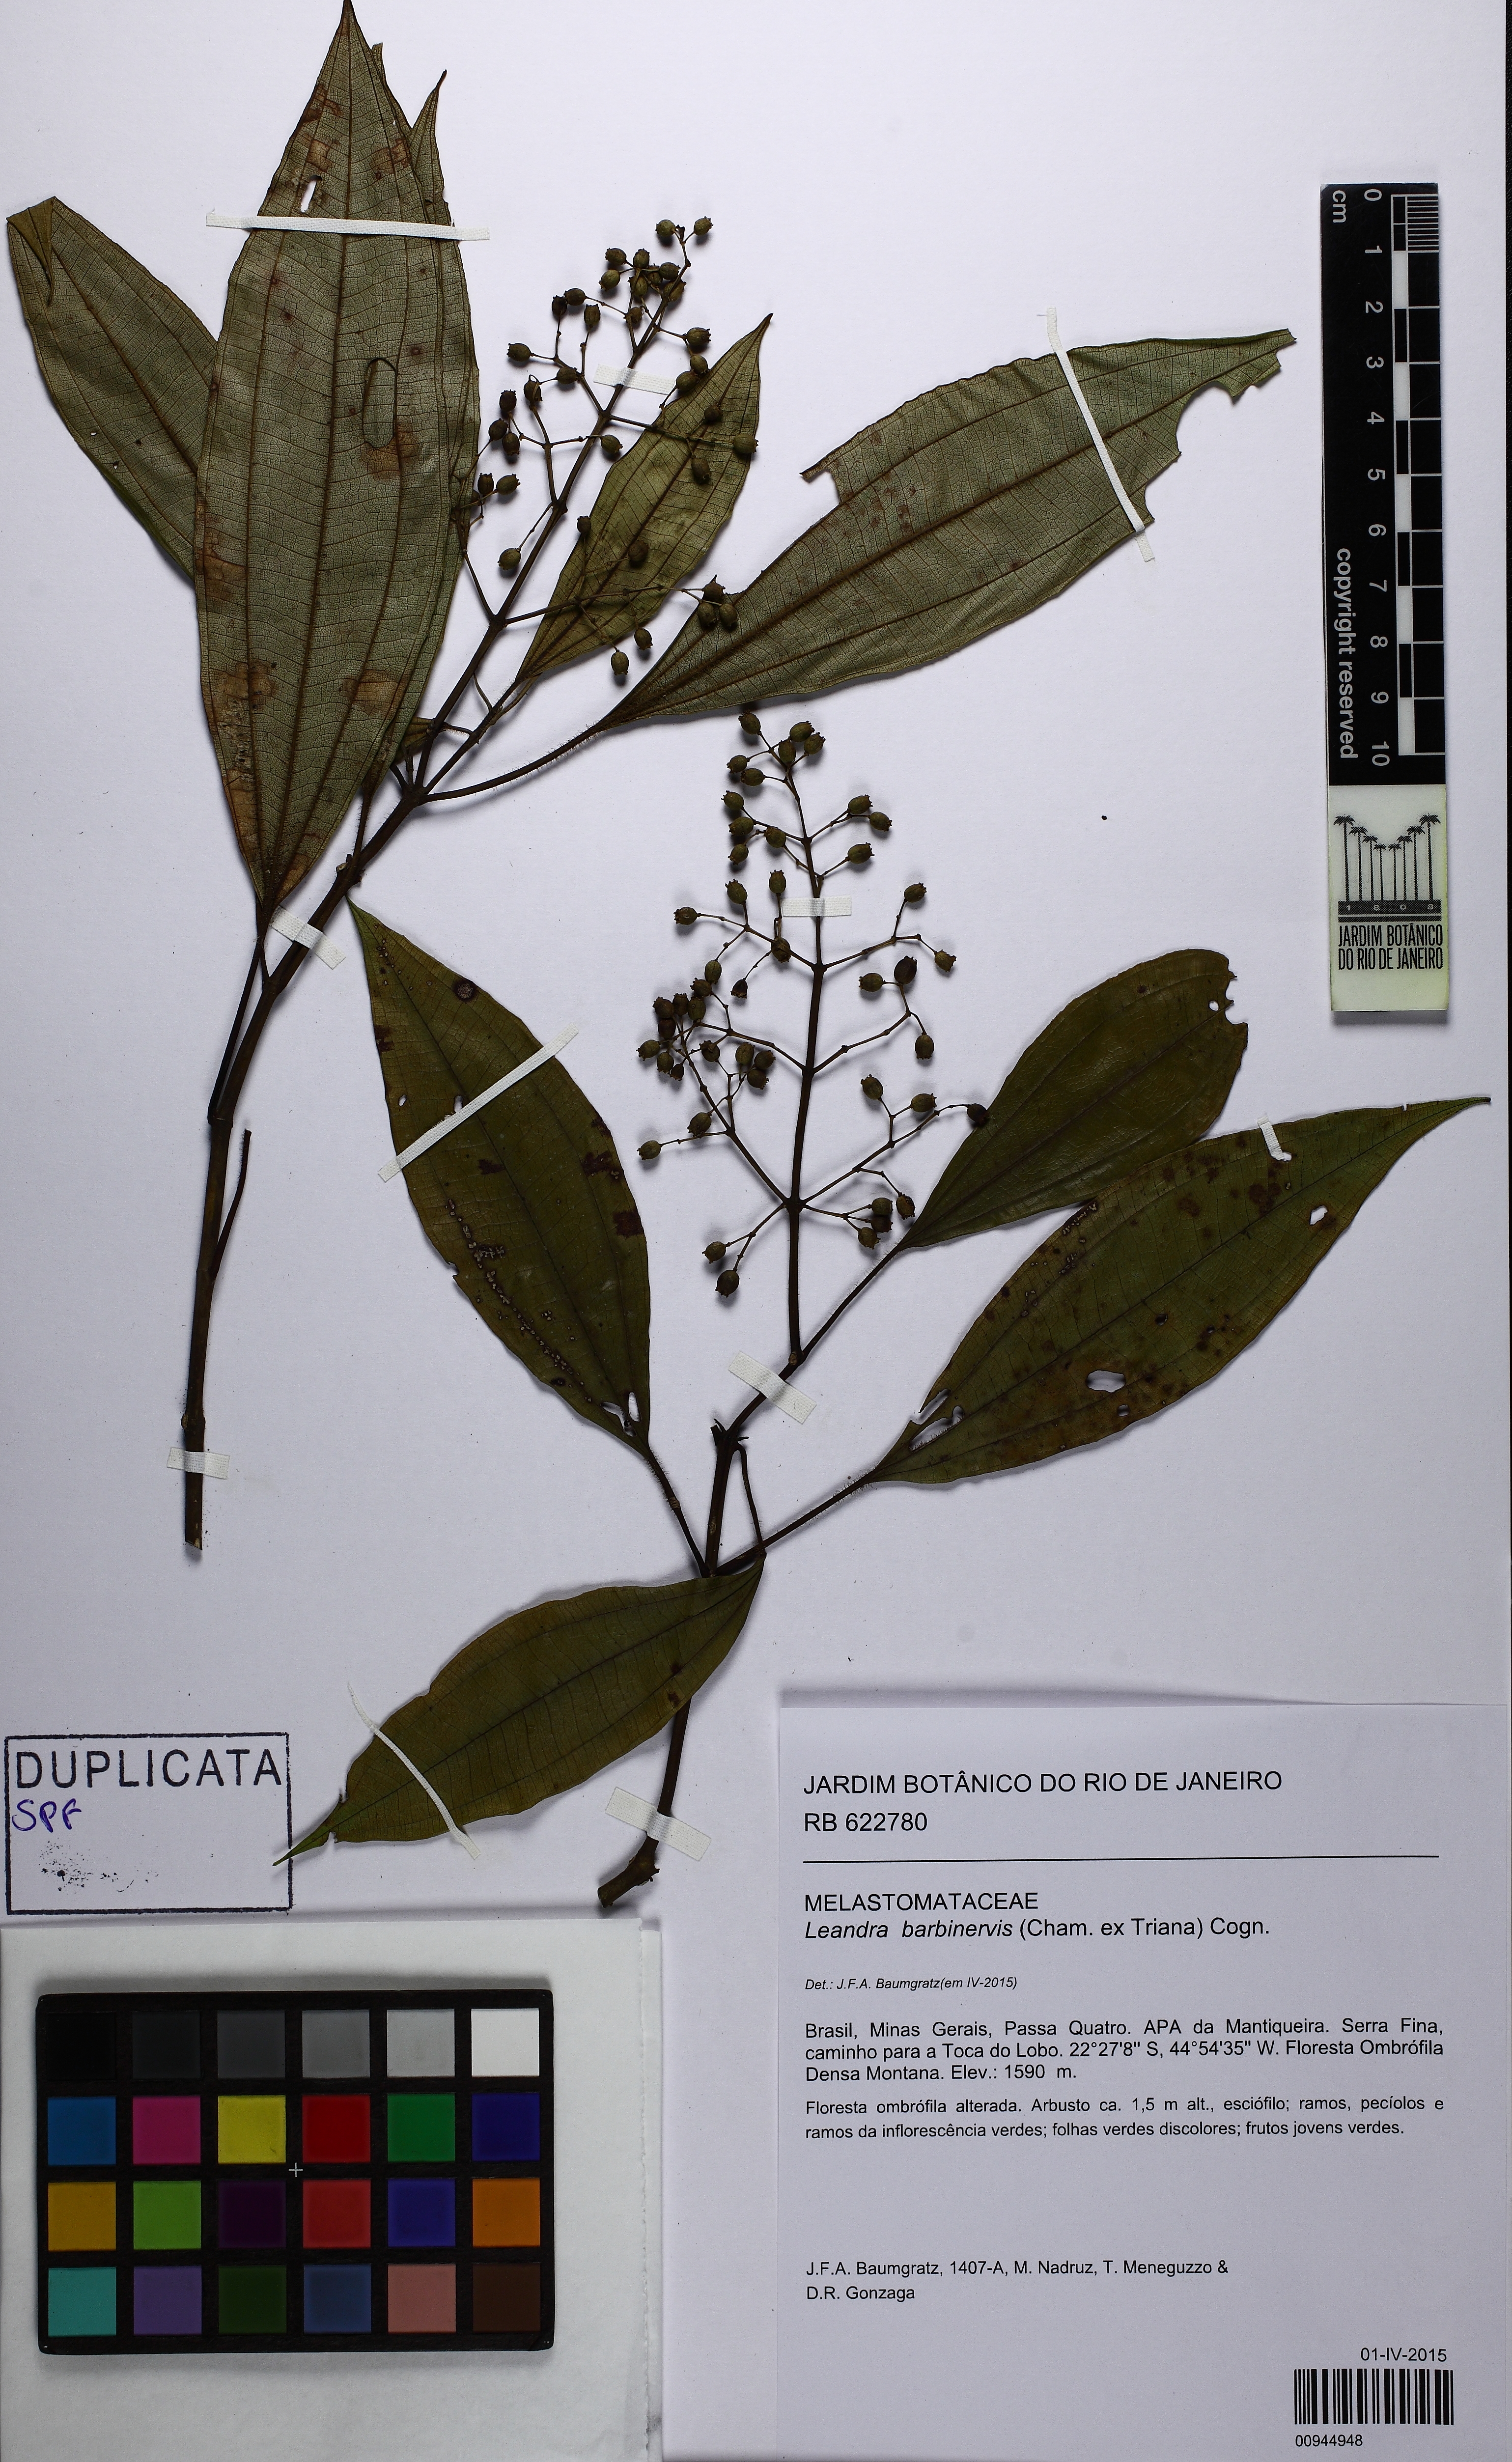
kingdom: Plantae
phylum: Tracheophyta
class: Magnoliopsida
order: Myrtales
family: Melastomataceae
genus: Miconia
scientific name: Miconia trauninensis
